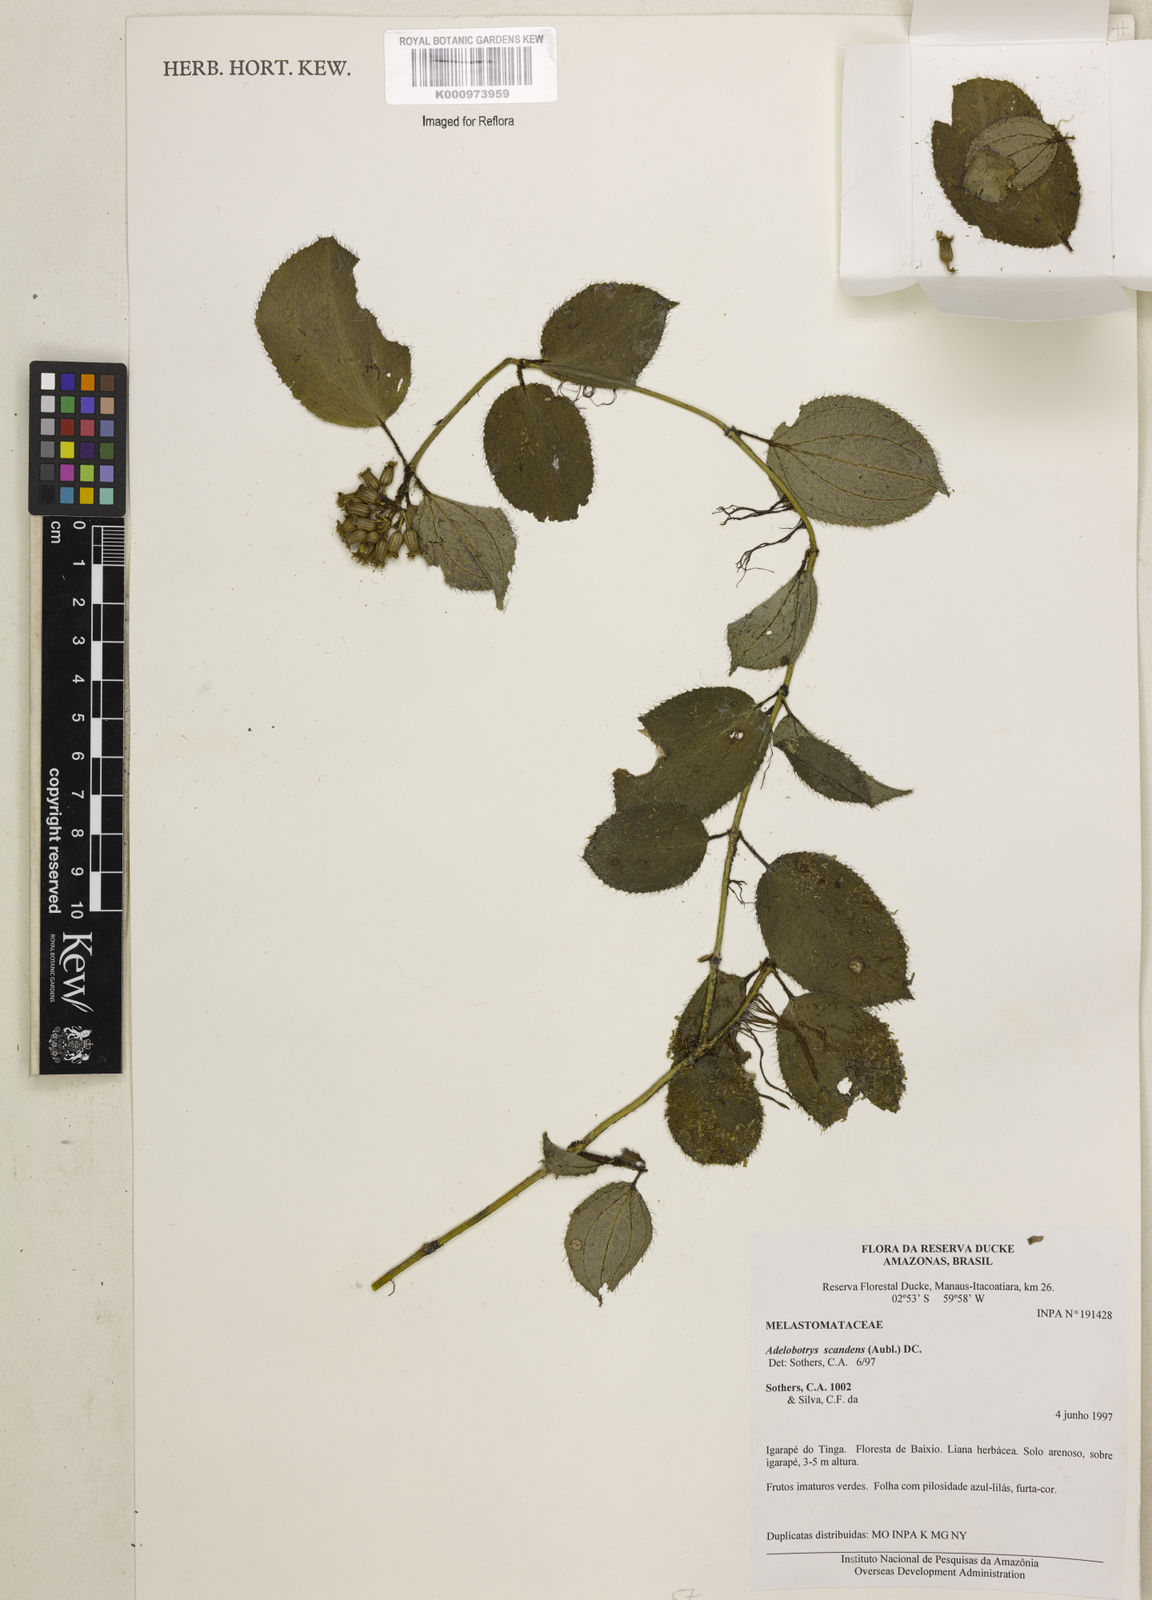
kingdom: Plantae
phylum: Tracheophyta
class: Magnoliopsida
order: Myrtales
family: Melastomataceae
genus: Adelobotrys
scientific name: Adelobotrys scandens
